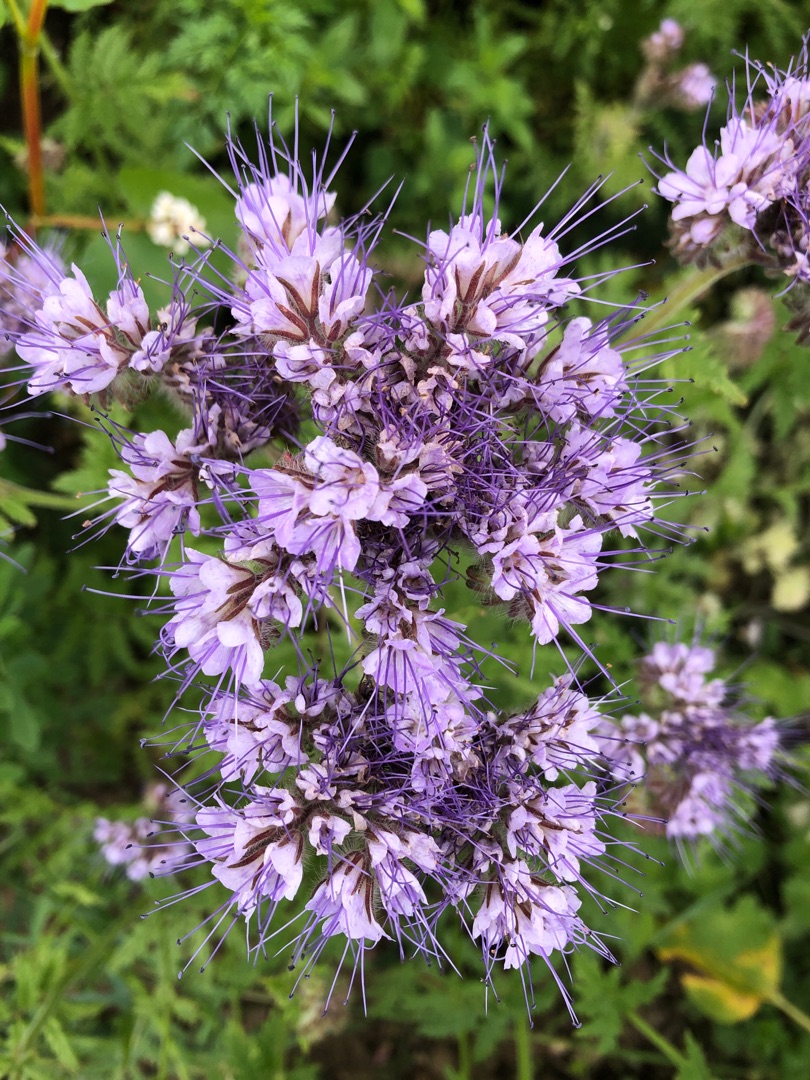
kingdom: Plantae
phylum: Tracheophyta
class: Magnoliopsida
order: Boraginales
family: Hydrophyllaceae
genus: Phacelia
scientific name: Phacelia tanacetifolia
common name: Honningurt
